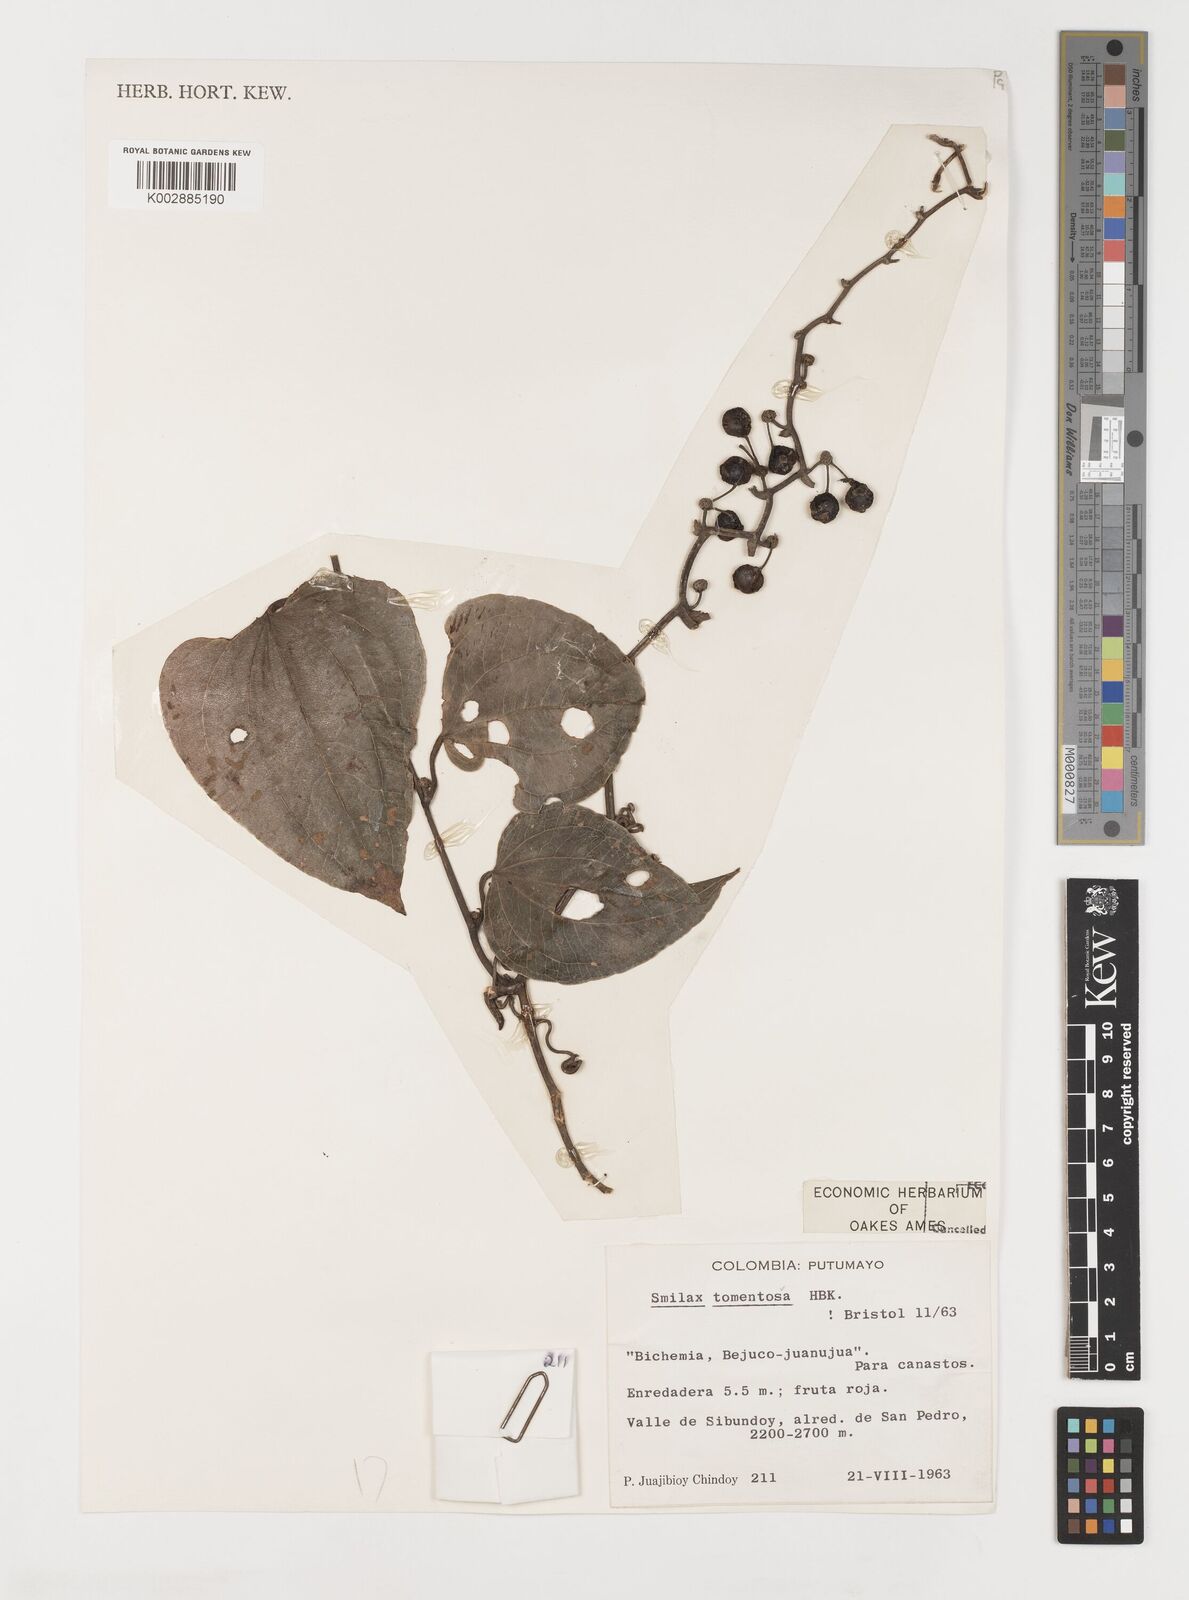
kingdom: Plantae
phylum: Tracheophyta
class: Liliopsida
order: Liliales
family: Smilacaceae
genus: Smilax
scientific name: Smilax tomentosa
